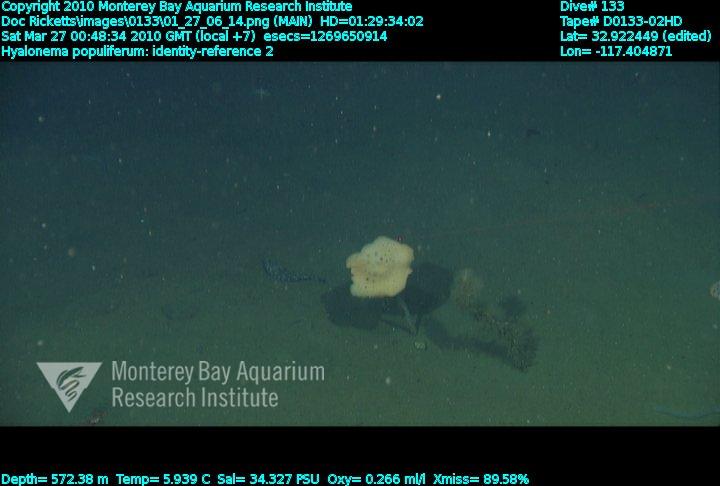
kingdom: Animalia
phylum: Porifera
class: Hexactinellida
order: Amphidiscosida
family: Hyalonematidae
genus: Hyalonema
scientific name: Hyalonema populiferum
